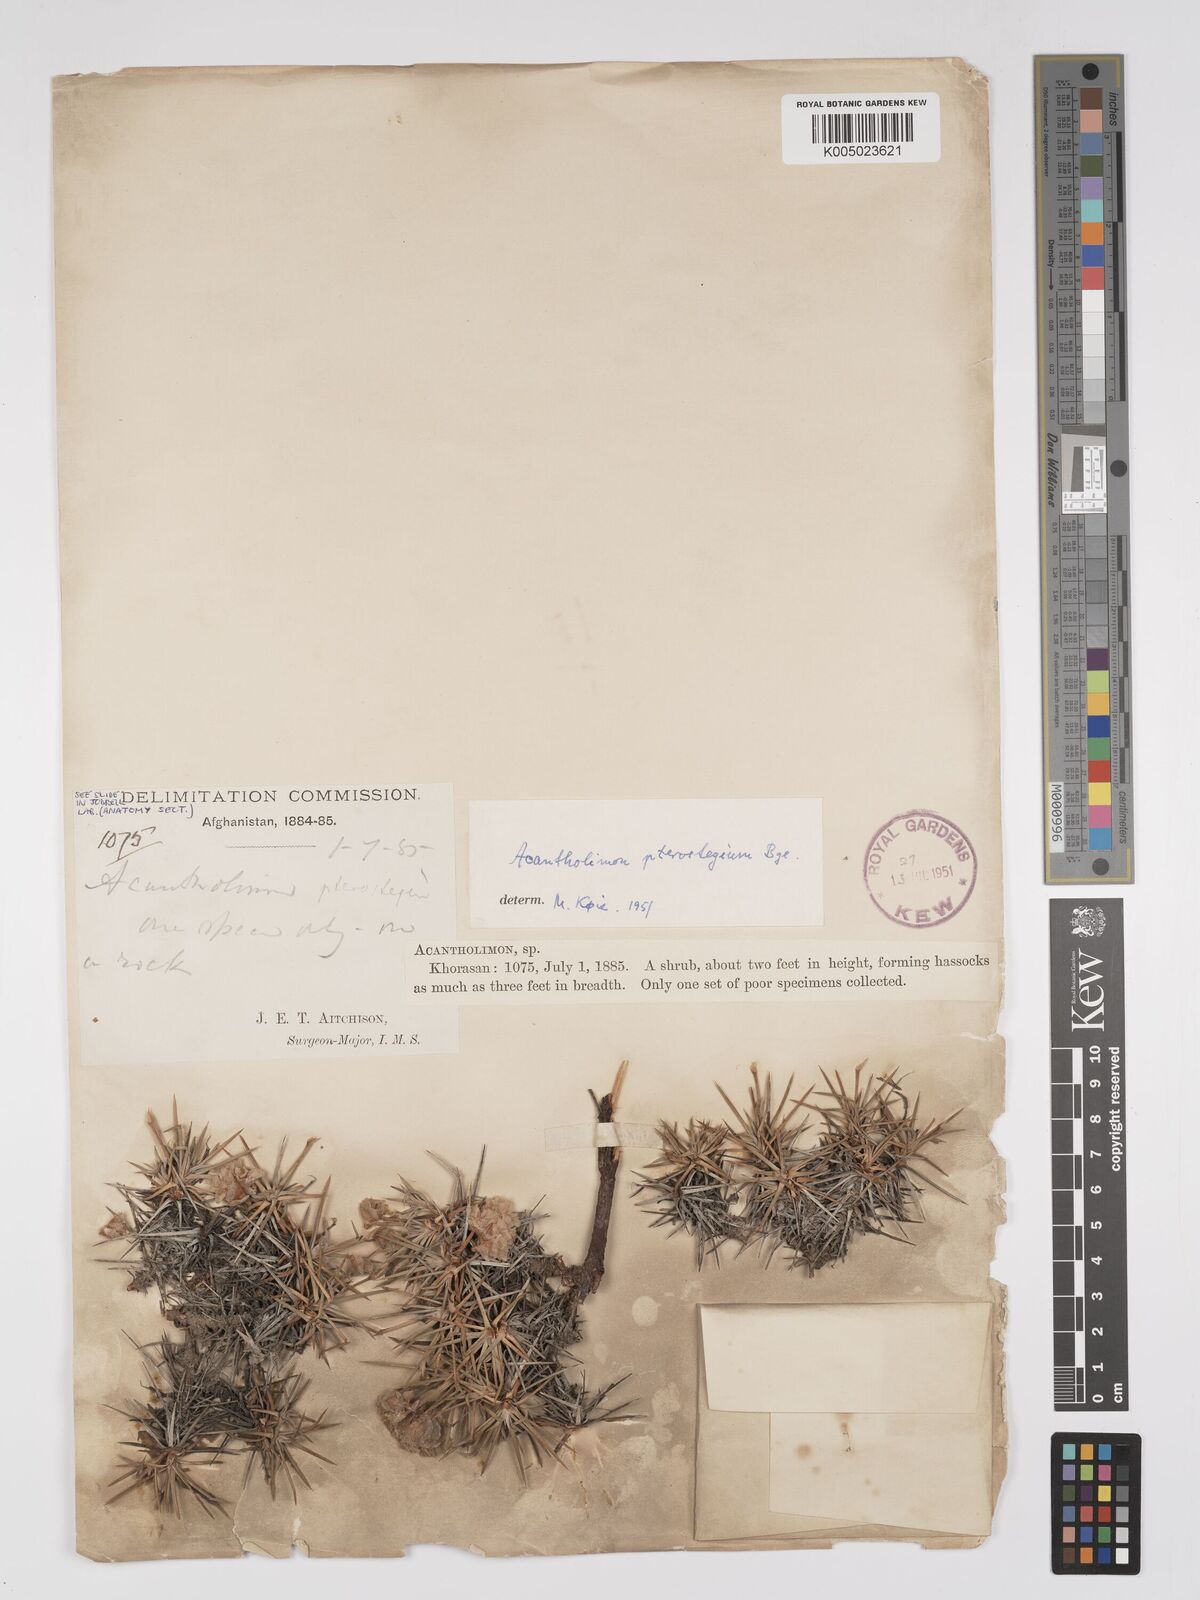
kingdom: Plantae
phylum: Tracheophyta
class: Magnoliopsida
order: Caryophyllales
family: Plumbaginaceae
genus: Acantholimon
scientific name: Acantholimon pterostegium
